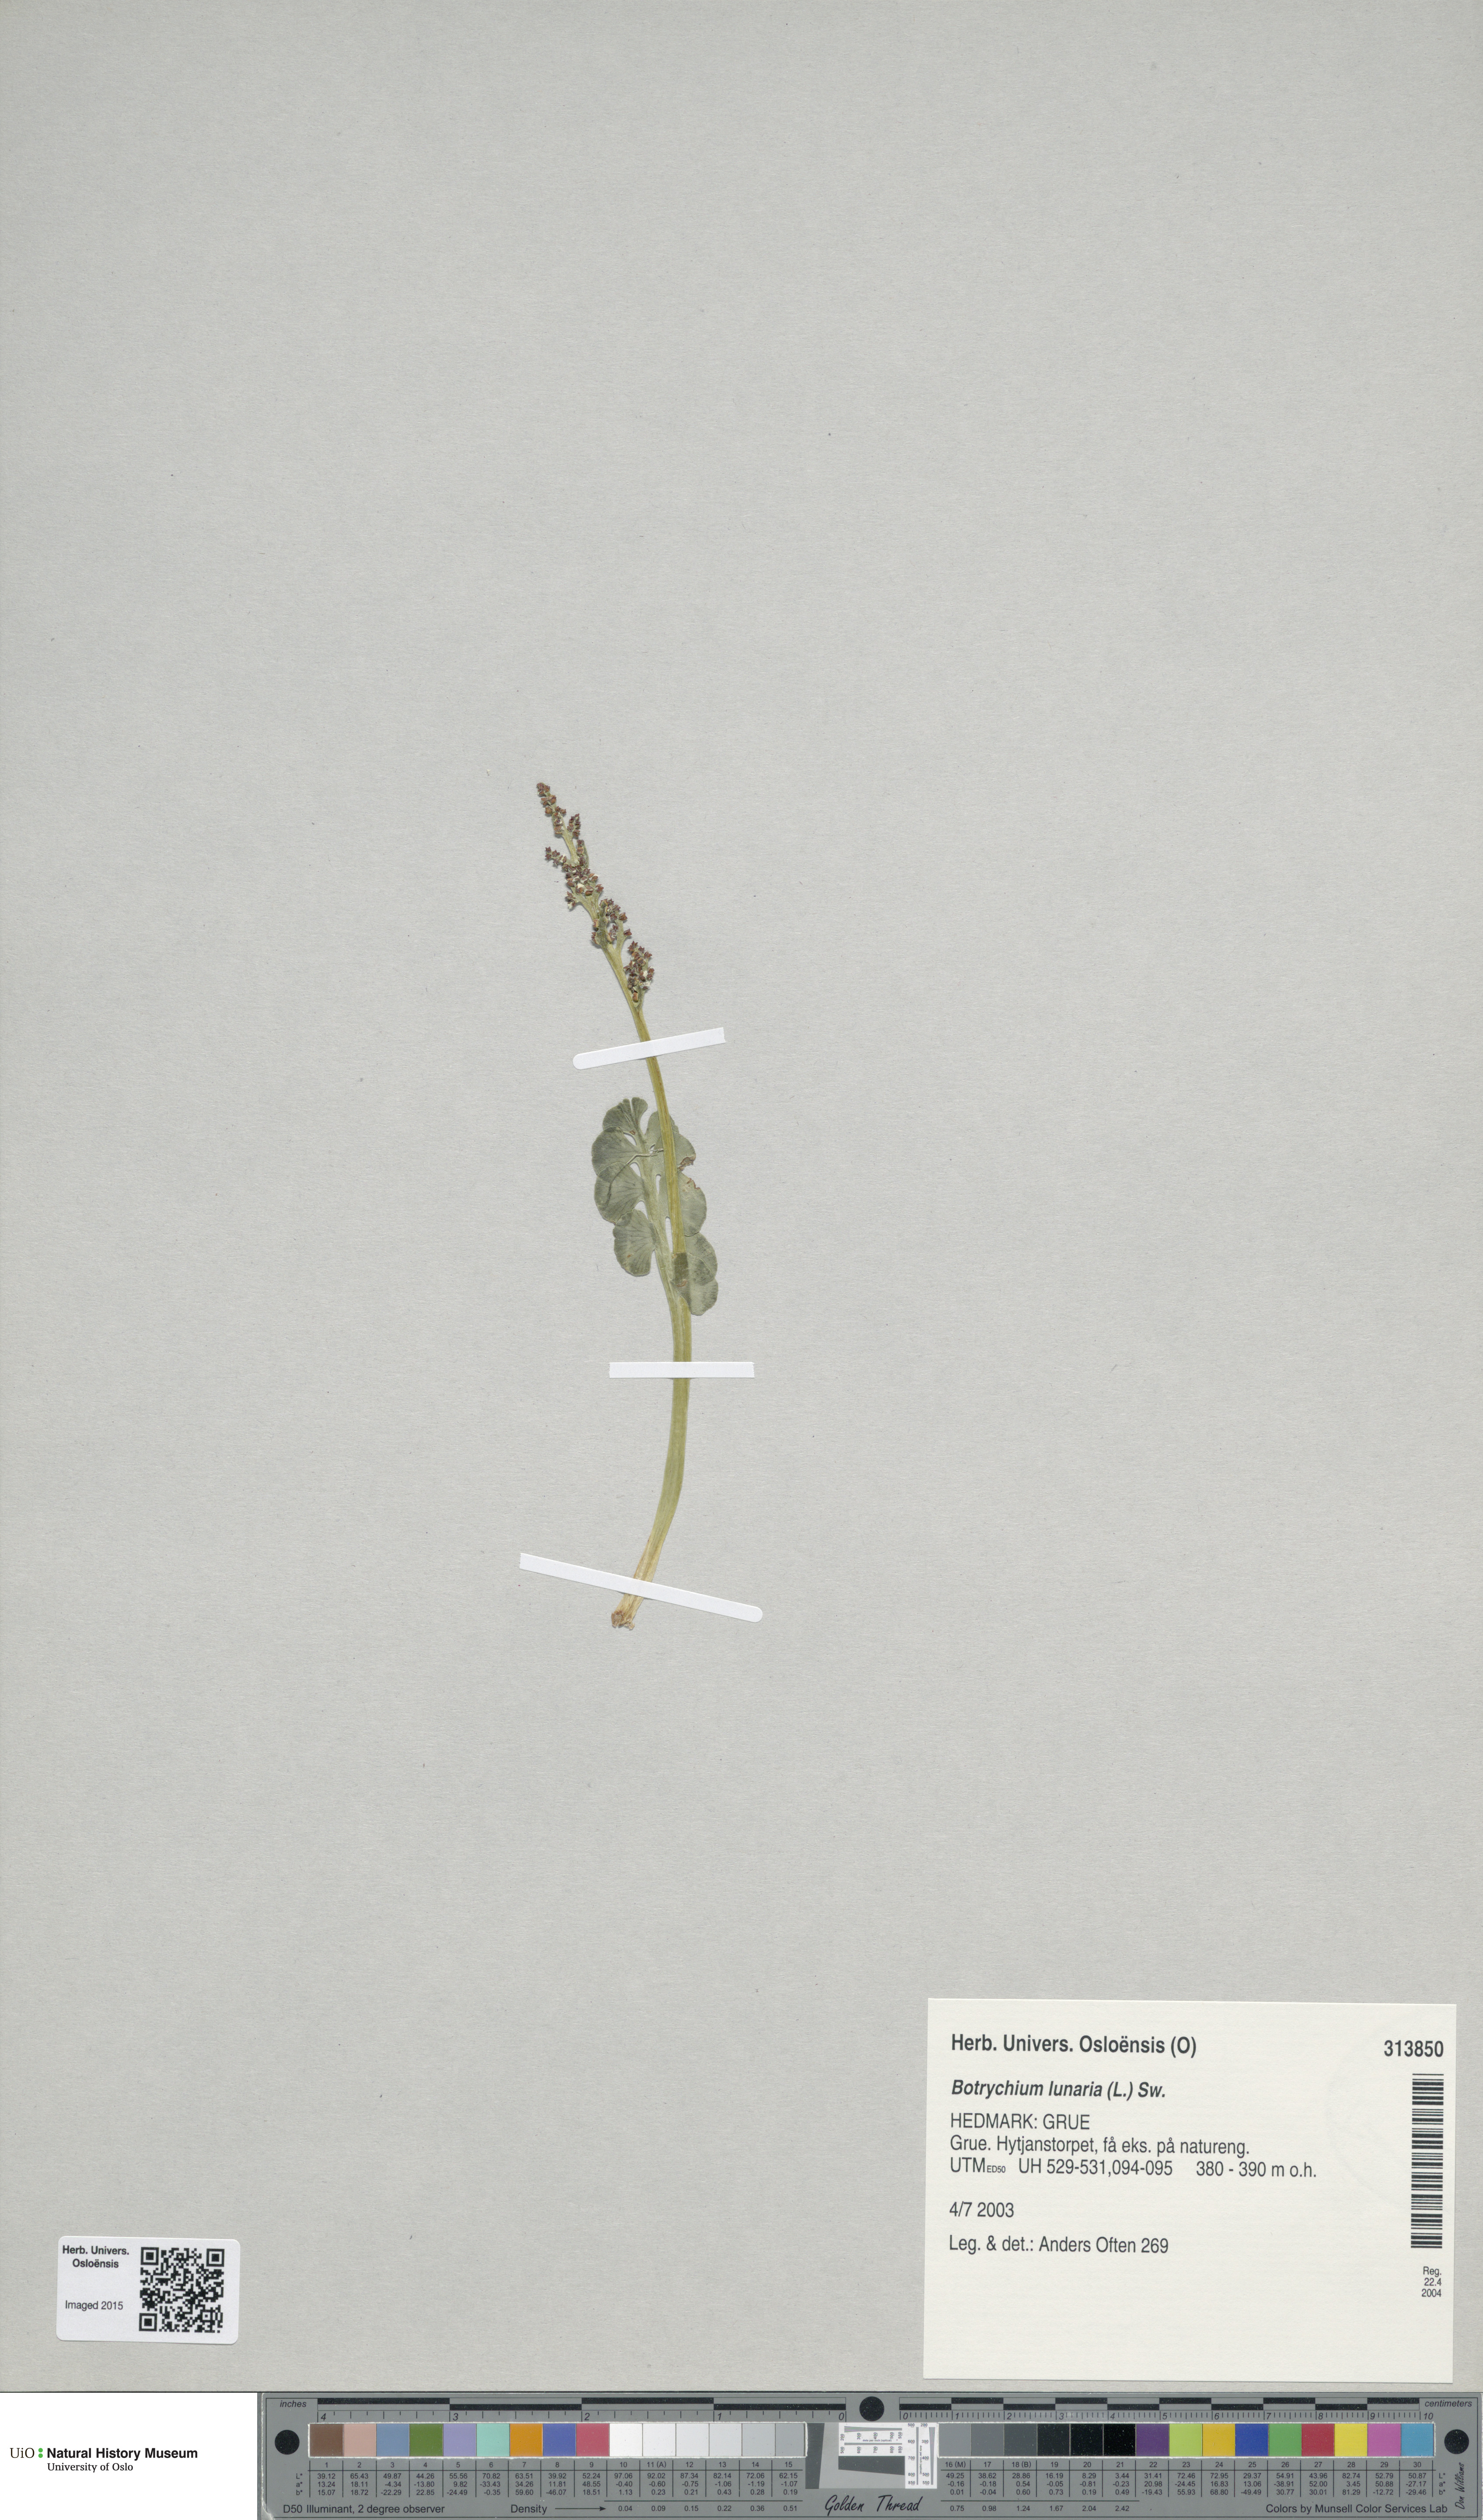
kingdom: Plantae
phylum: Tracheophyta
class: Polypodiopsida
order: Ophioglossales
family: Ophioglossaceae
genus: Botrychium
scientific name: Botrychium lunaria
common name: Moonwort
